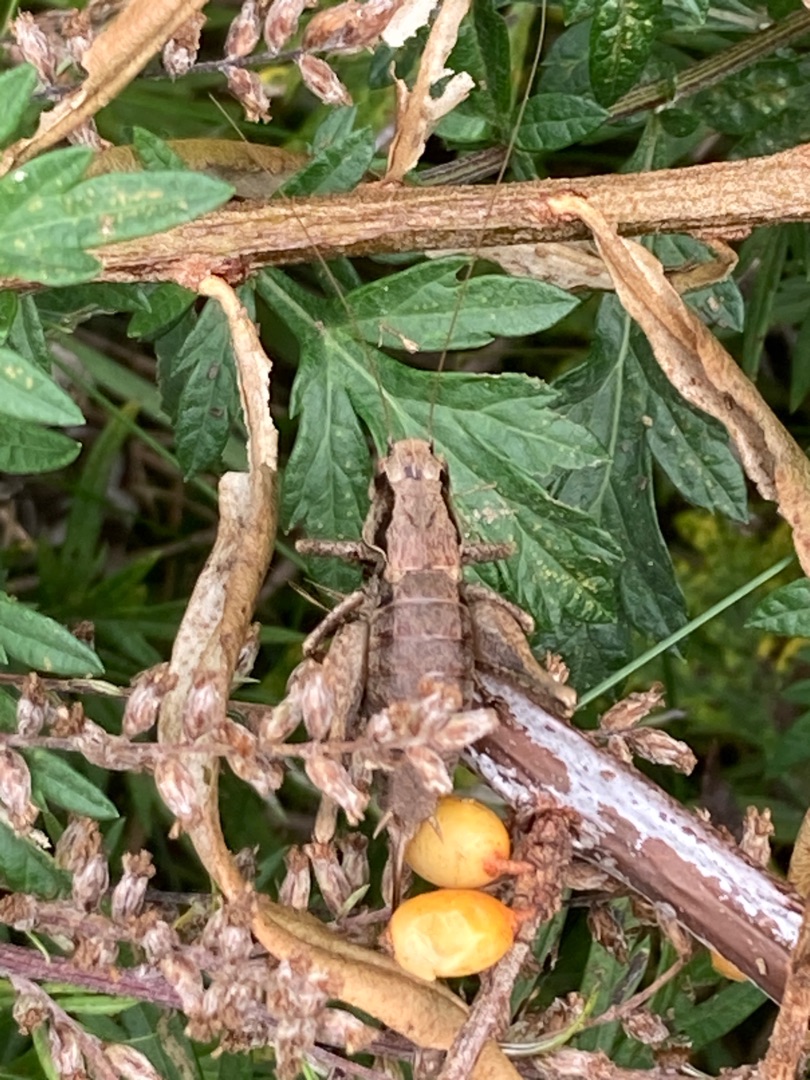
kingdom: Animalia
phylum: Arthropoda
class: Insecta
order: Orthoptera
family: Tettigoniidae
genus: Pholidoptera
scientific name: Pholidoptera griseoaptera
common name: Buskgræshoppe
